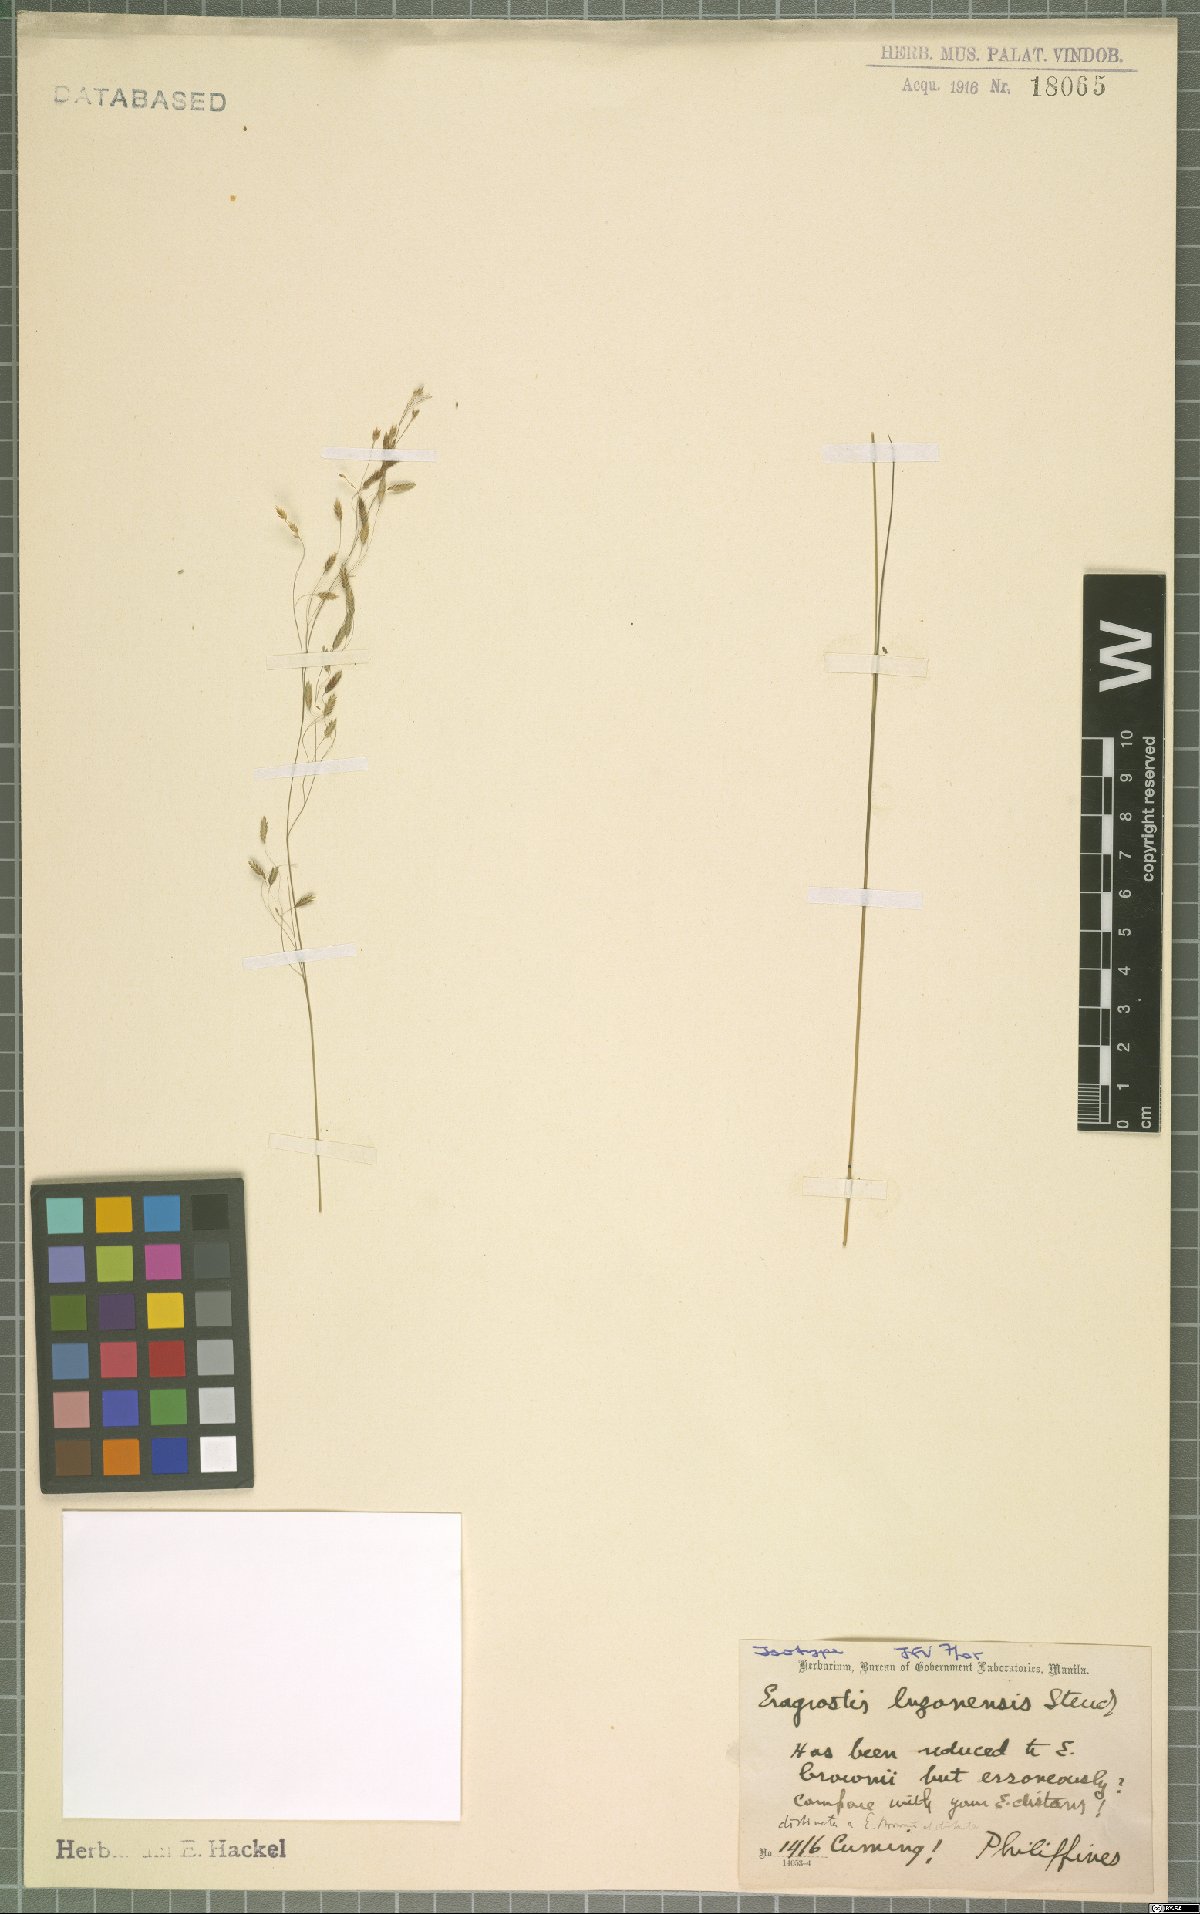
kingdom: Plantae
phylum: Tracheophyta
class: Liliopsida
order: Poales
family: Poaceae
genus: Eragrostis
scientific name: Eragrostis atrovirens
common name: Thalia lovegrass
